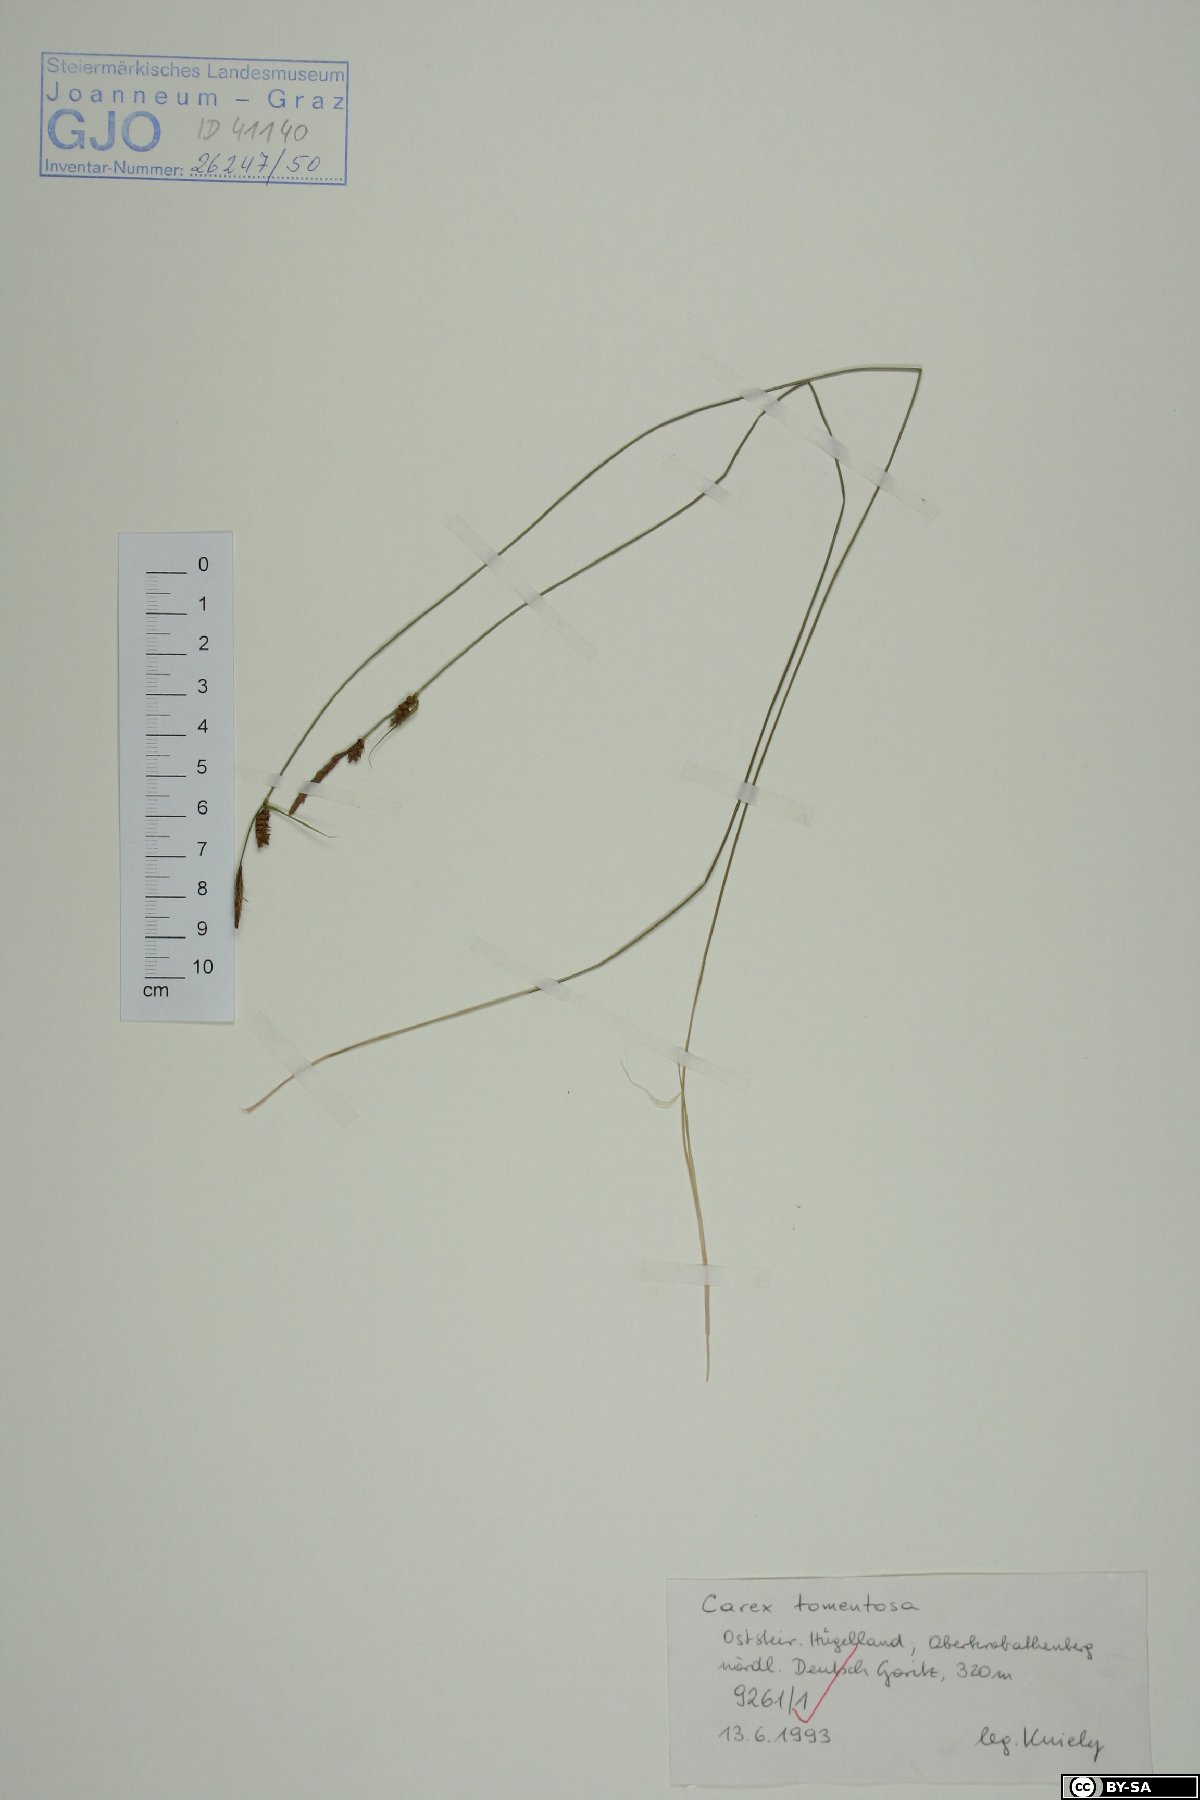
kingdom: Plantae
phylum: Tracheophyta
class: Liliopsida
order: Poales
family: Cyperaceae
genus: Carex
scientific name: Carex tomentosa
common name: Downy-fruited sedge
